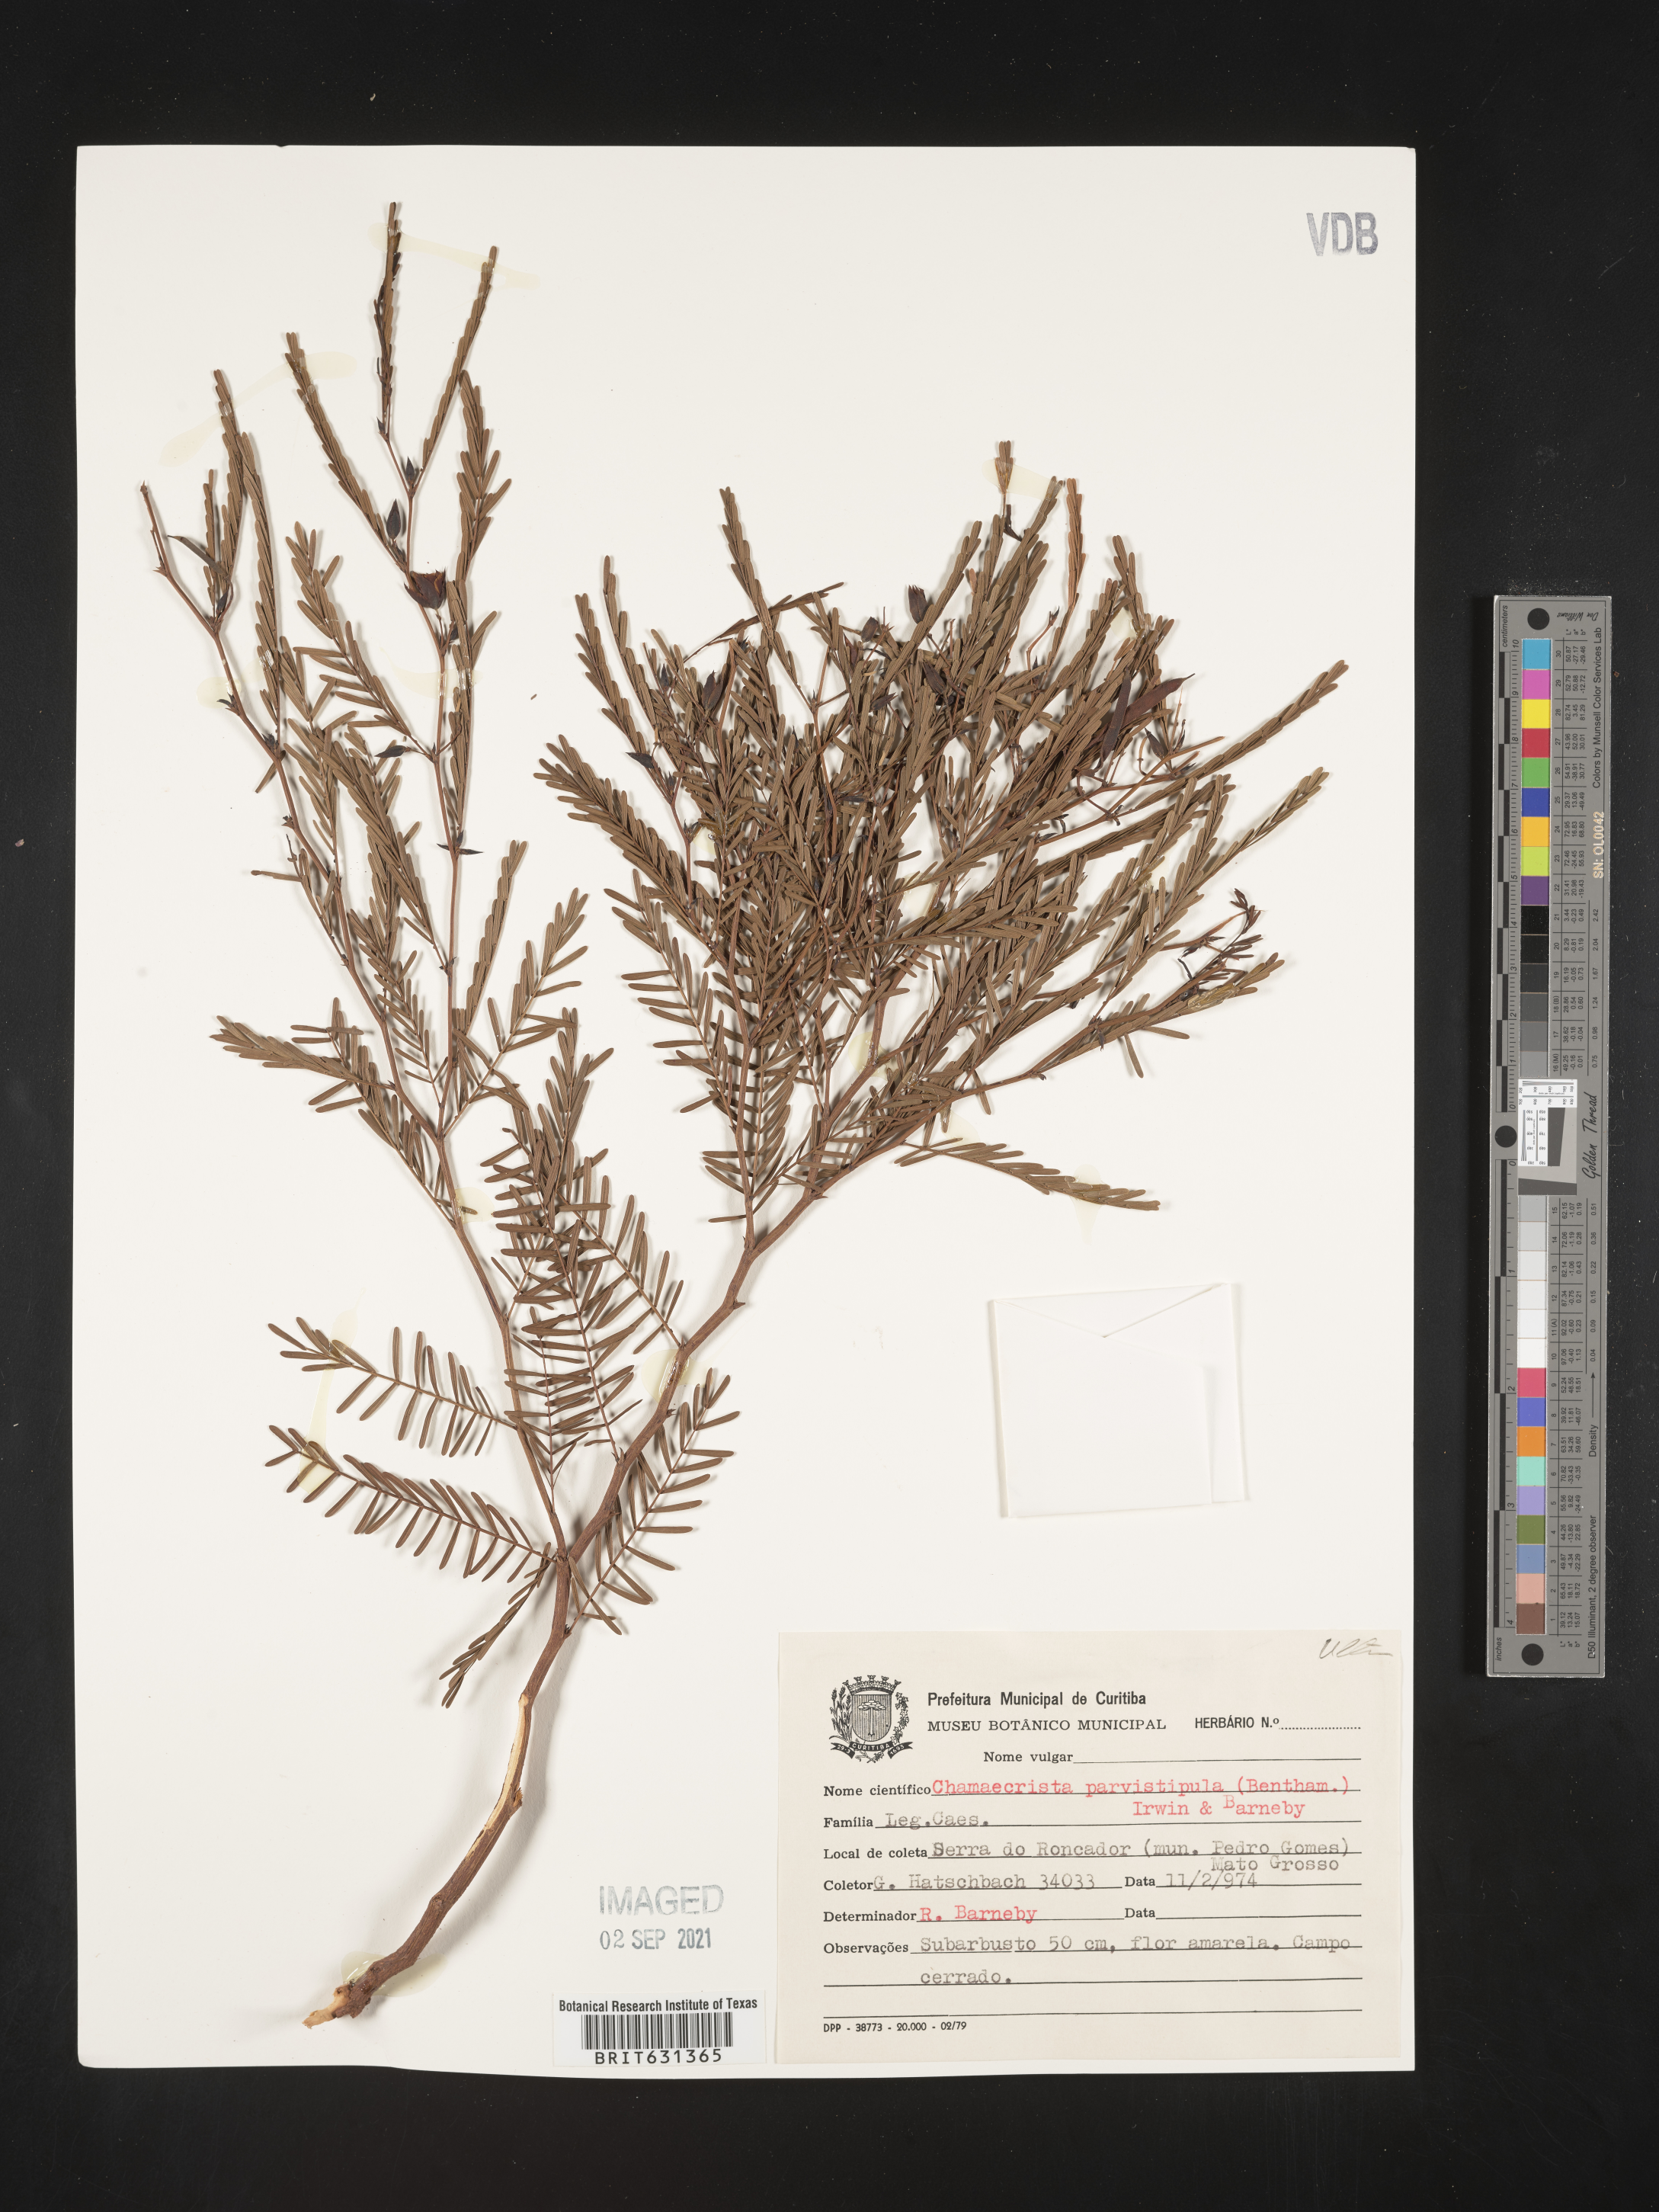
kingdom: Plantae
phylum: Tracheophyta
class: Magnoliopsida
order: Fabales
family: Fabaceae
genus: Chamaecrista
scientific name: Chamaecrista parvistipula
